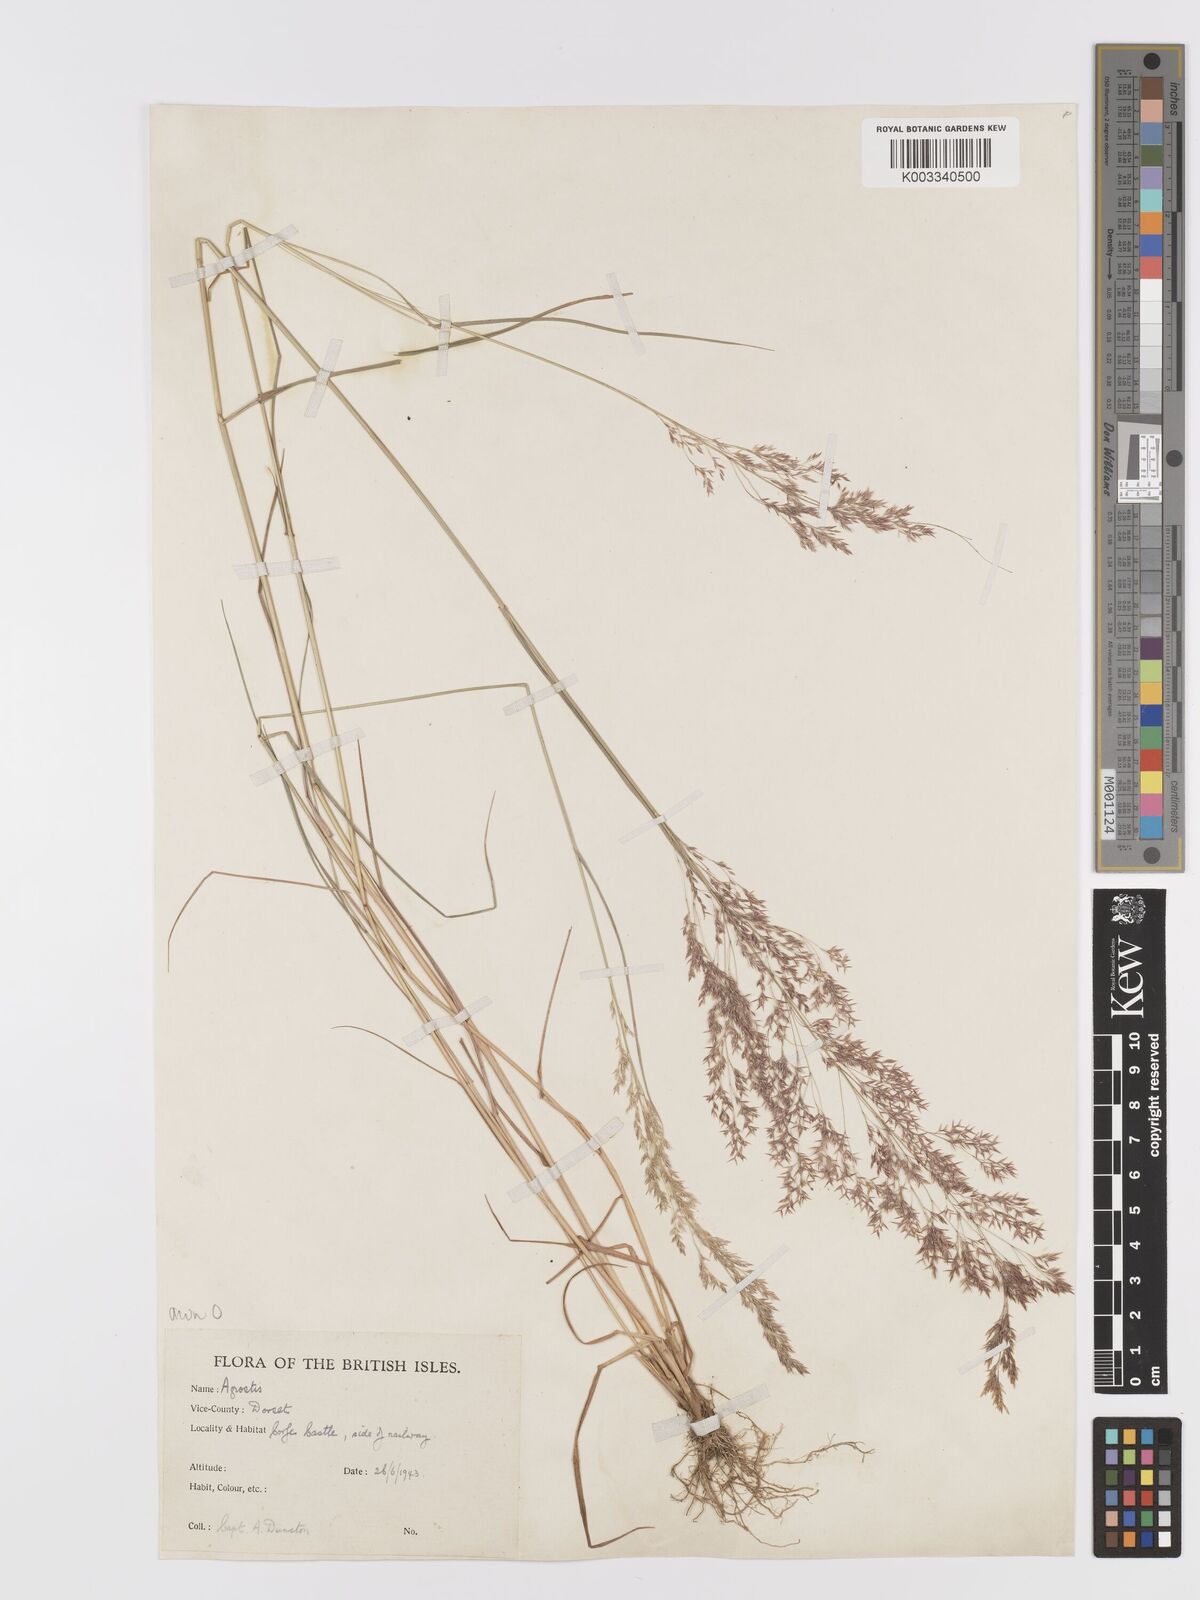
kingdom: Plantae
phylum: Tracheophyta
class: Liliopsida
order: Poales
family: Poaceae
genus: Agrostis
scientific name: Agrostis capillaris
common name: Colonial bentgrass
